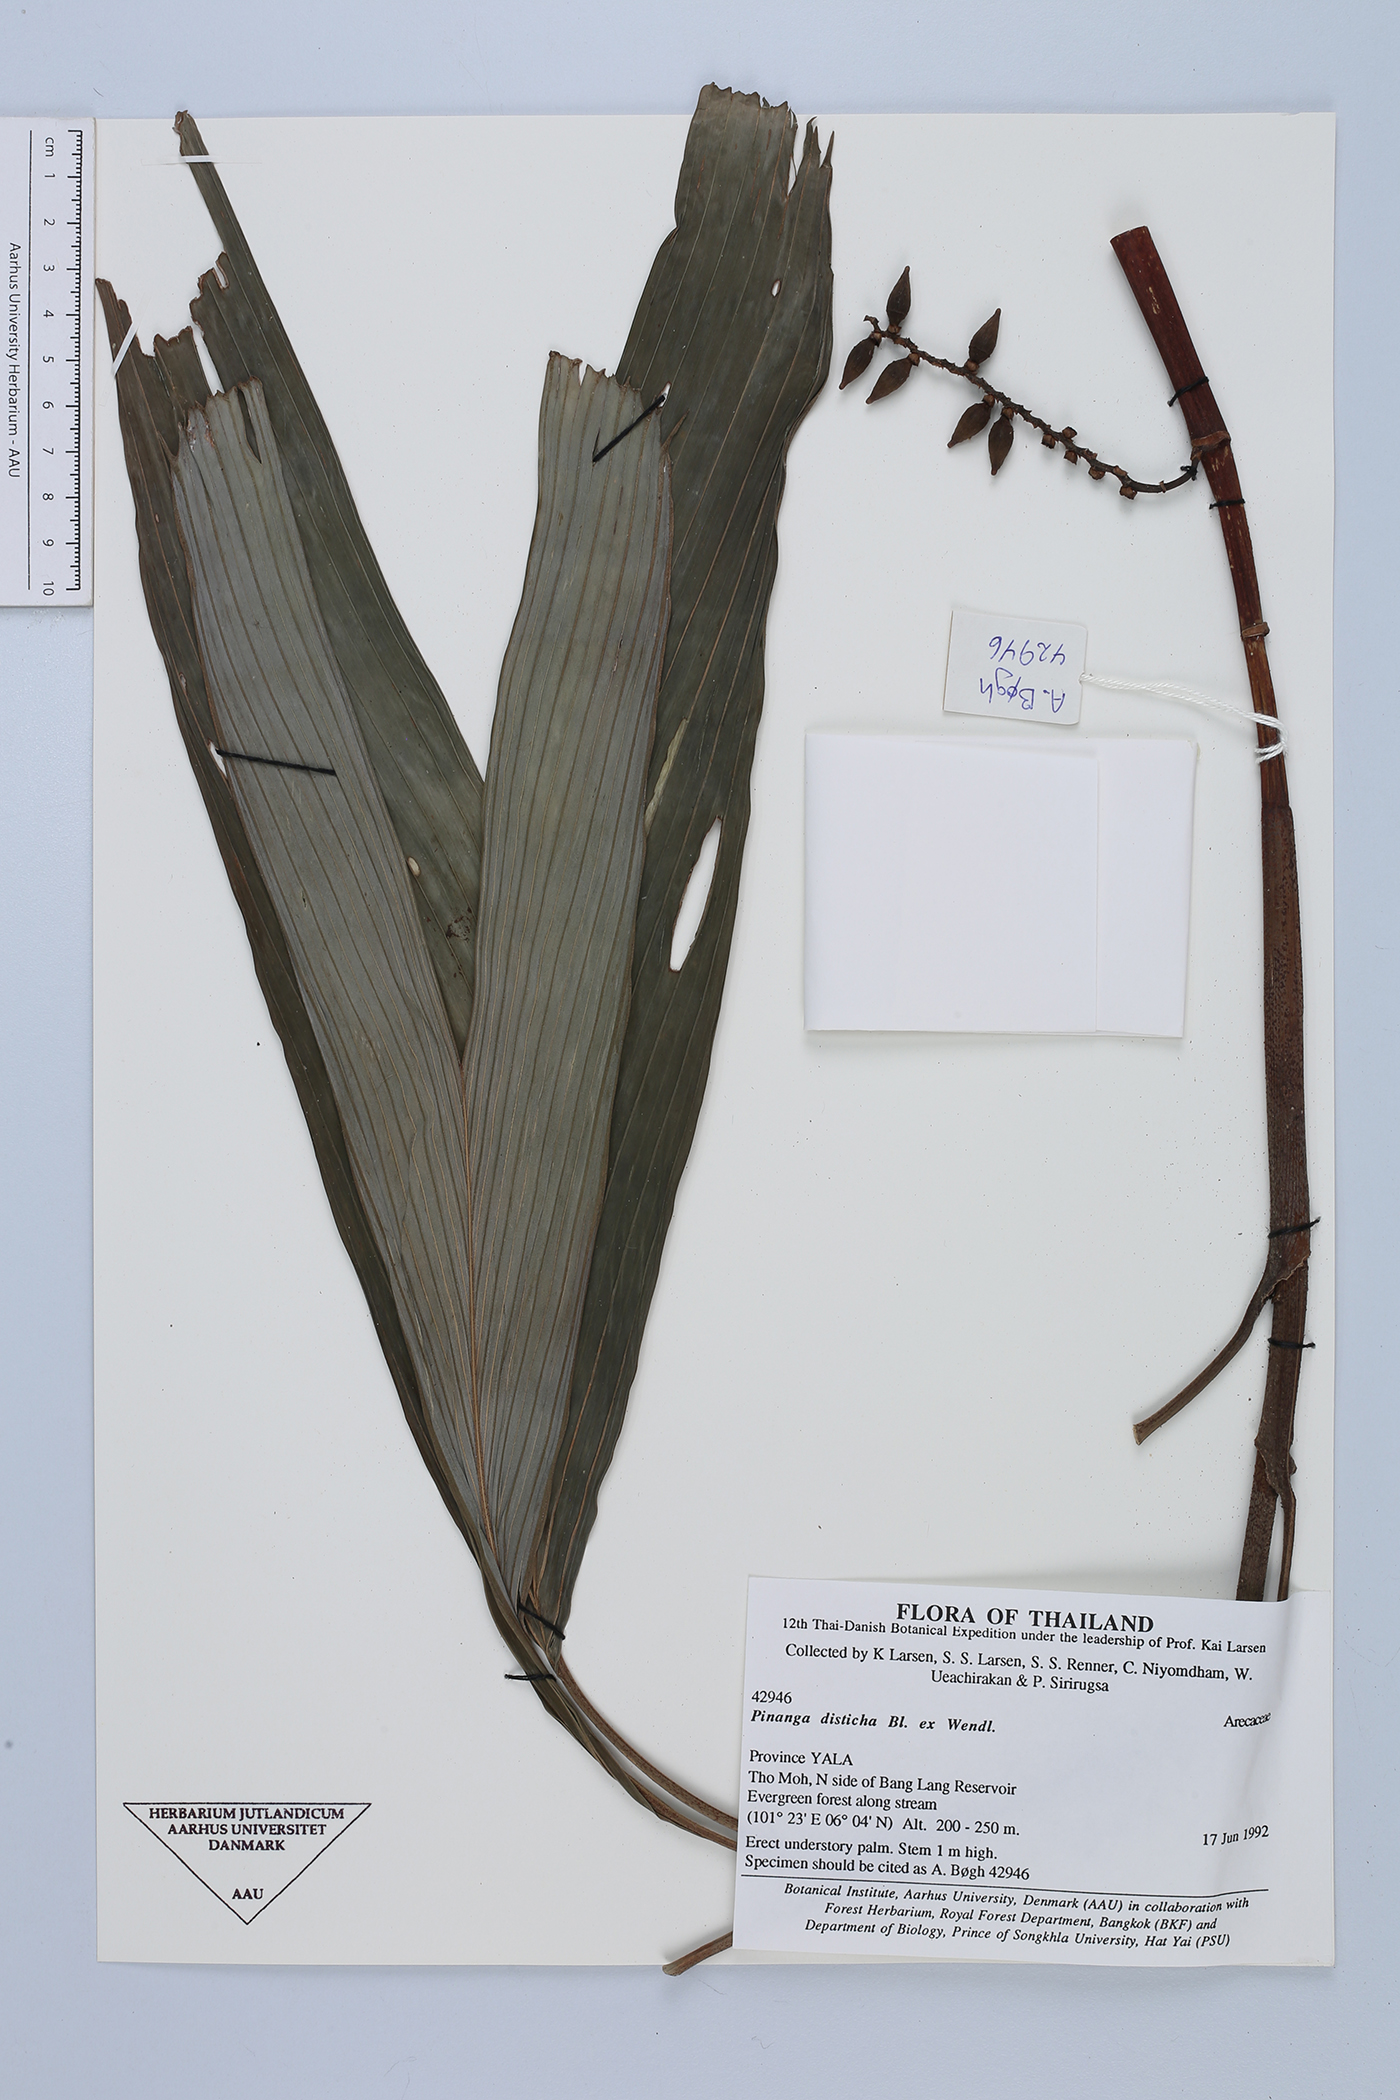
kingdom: Plantae
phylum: Tracheophyta
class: Liliopsida
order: Arecales
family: Arecaceae
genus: Pinanga
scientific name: Pinanga disticha
